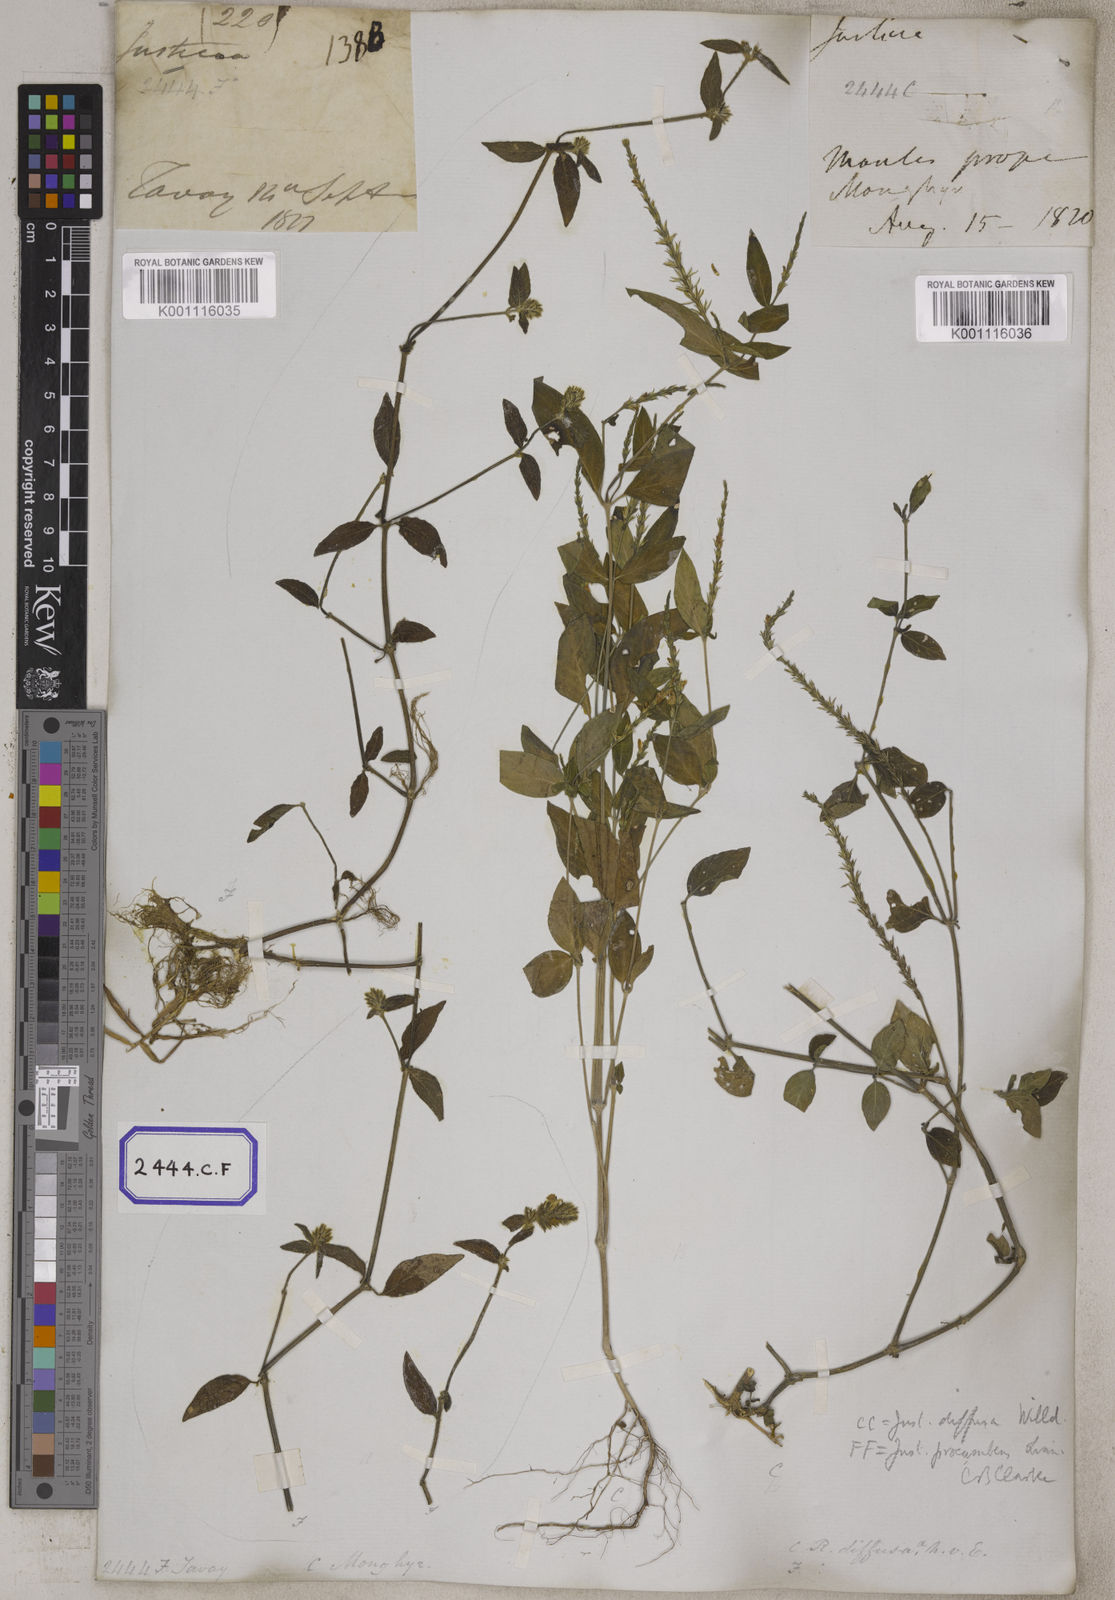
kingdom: Plantae
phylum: Tracheophyta
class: Magnoliopsida
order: Lamiales
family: Acanthaceae
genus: Justicia
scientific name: Justicia
